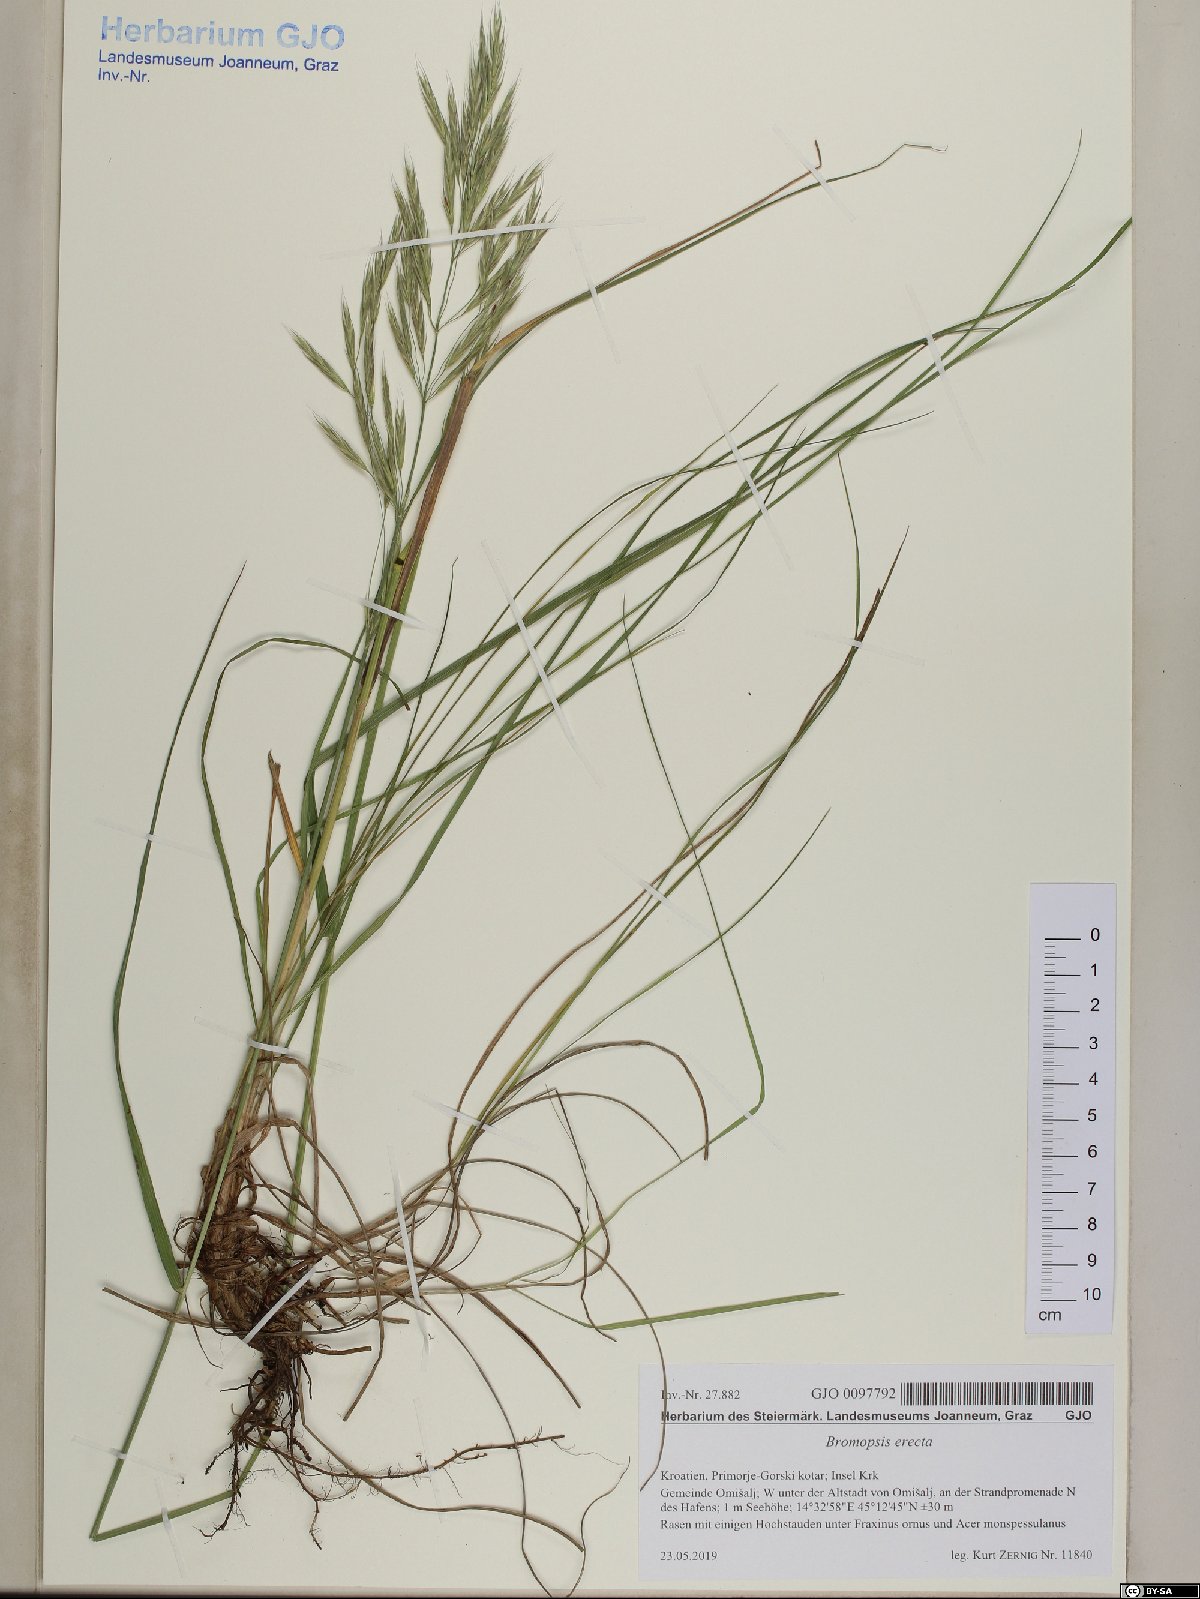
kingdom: Plantae
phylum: Tracheophyta
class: Liliopsida
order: Poales
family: Poaceae
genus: Bromus
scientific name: Bromus erectus
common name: Erect brome
